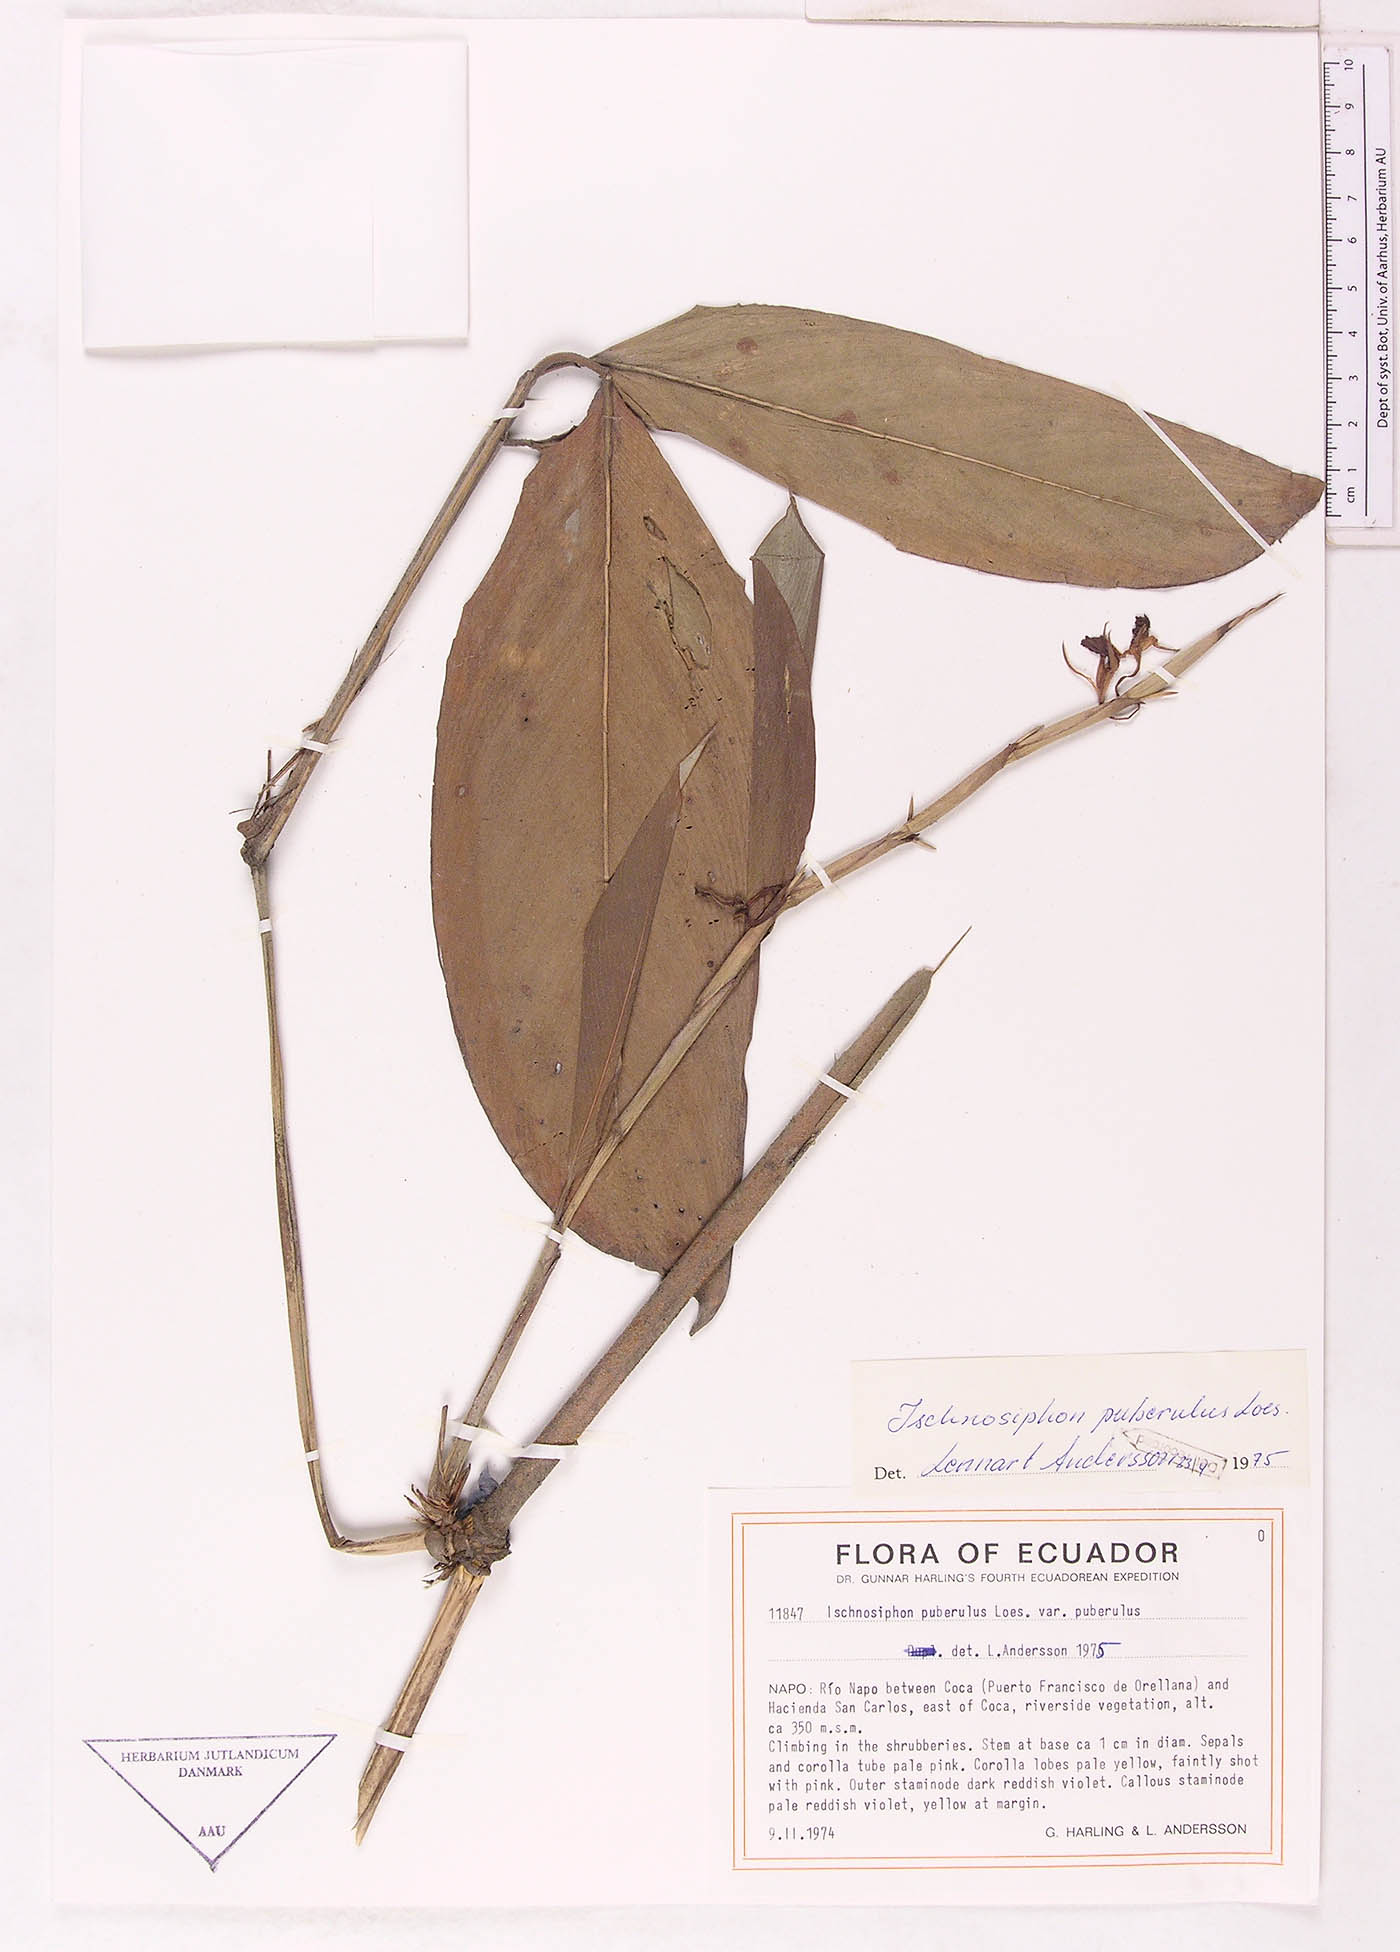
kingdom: Plantae
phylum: Tracheophyta
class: Liliopsida
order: Zingiberales
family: Marantaceae
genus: Ischnosiphon
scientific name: Ischnosiphon puberulus
